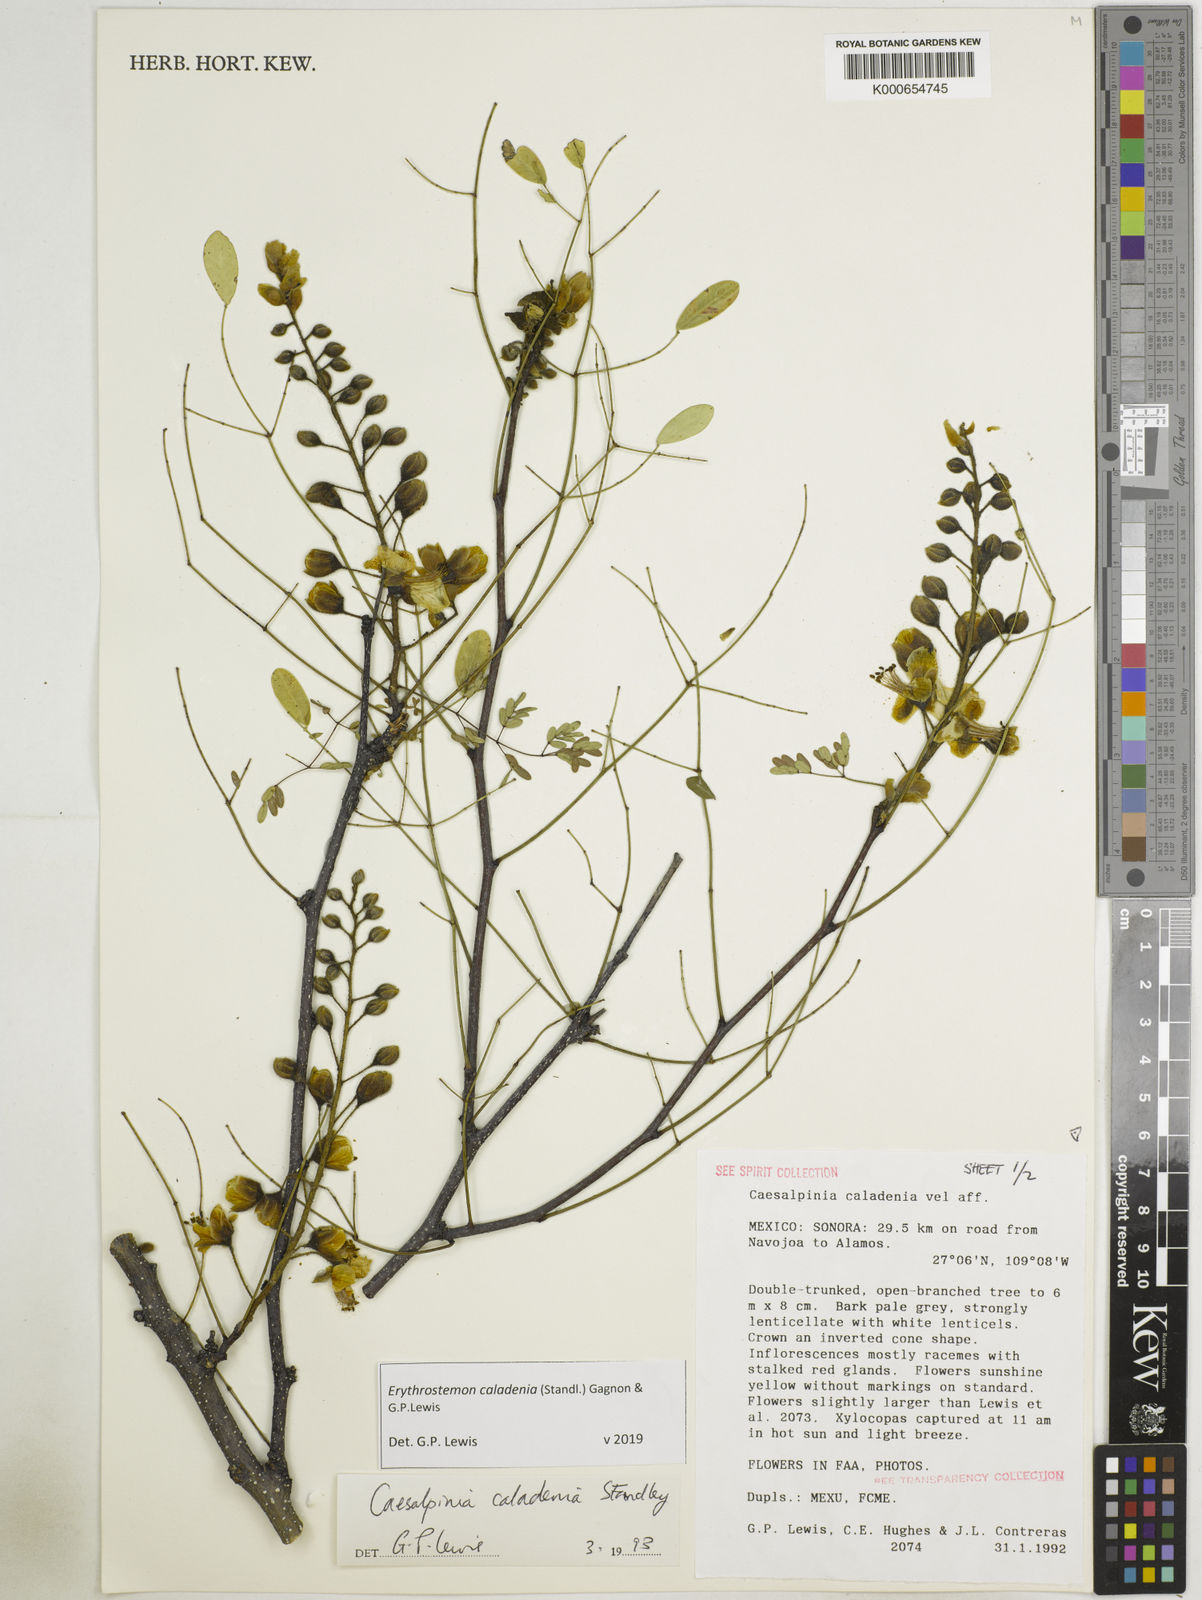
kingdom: Plantae
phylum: Tracheophyta
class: Magnoliopsida
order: Fabales
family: Fabaceae
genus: Adenanthera
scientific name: Adenanthera novoguineensis
